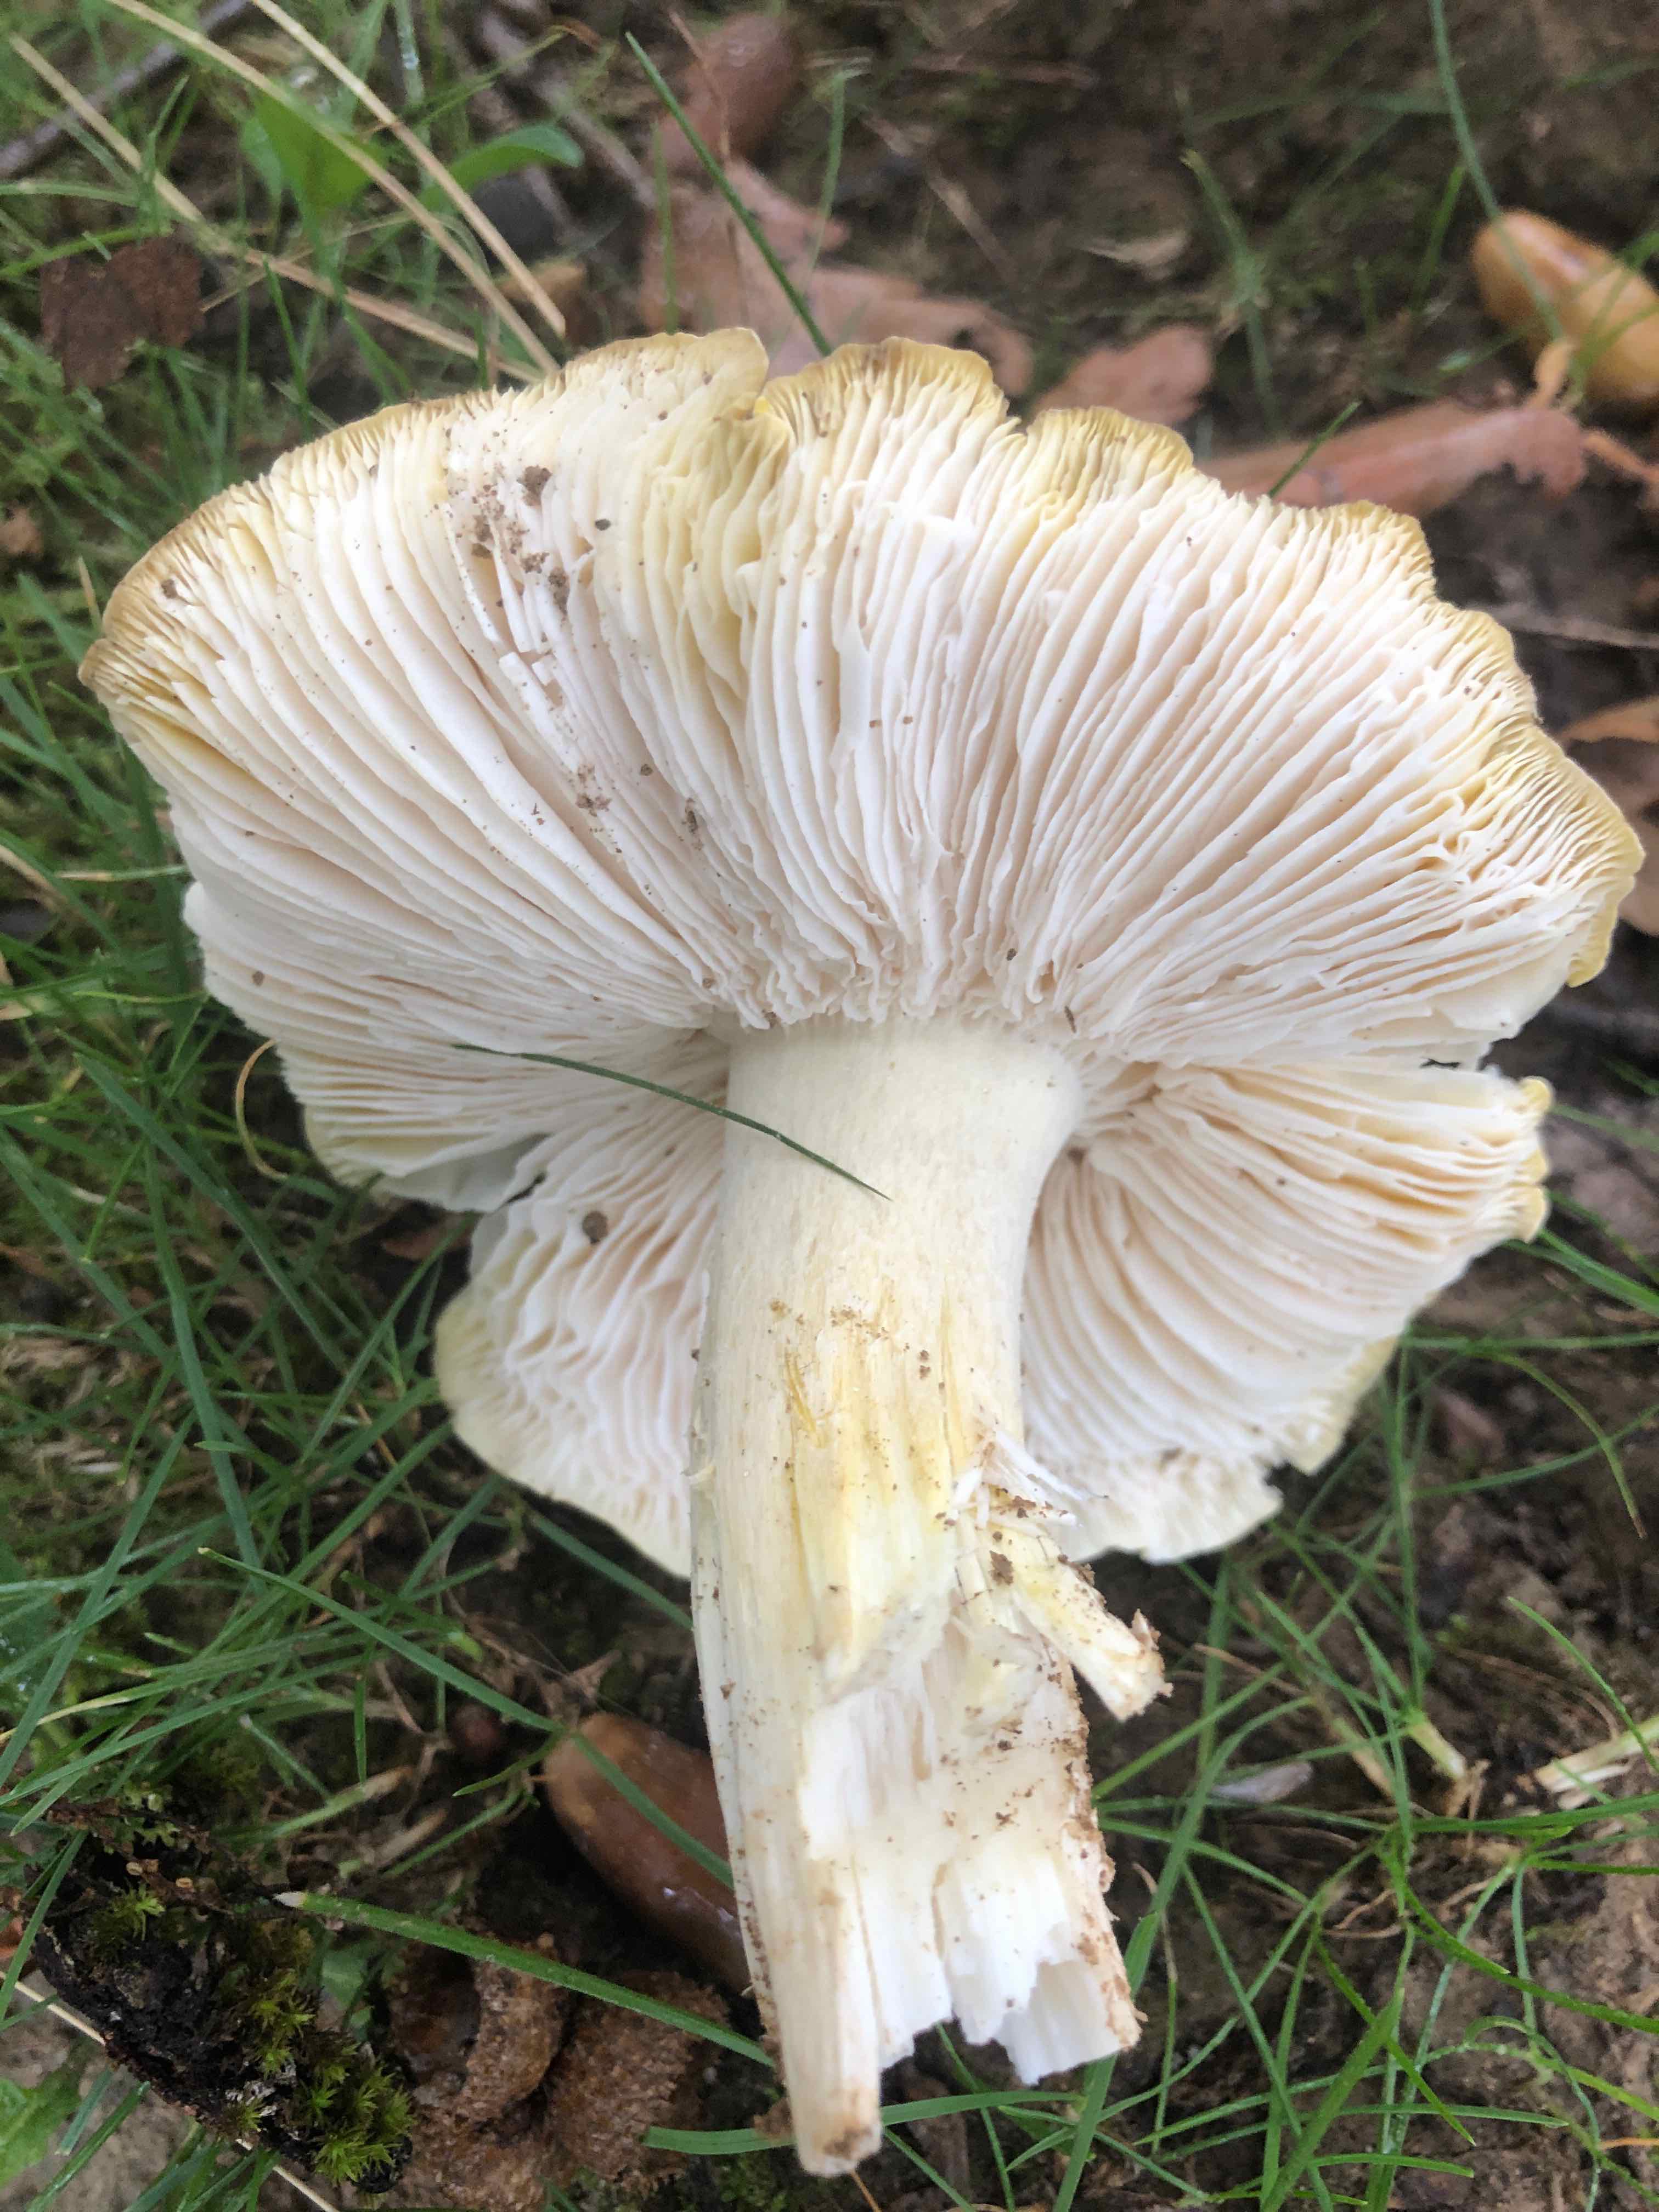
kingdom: Fungi
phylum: Basidiomycota
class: Agaricomycetes
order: Agaricales
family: Tricholomataceae
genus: Tricholoma
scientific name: Tricholoma sejunctum
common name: grøngul ridderhat
